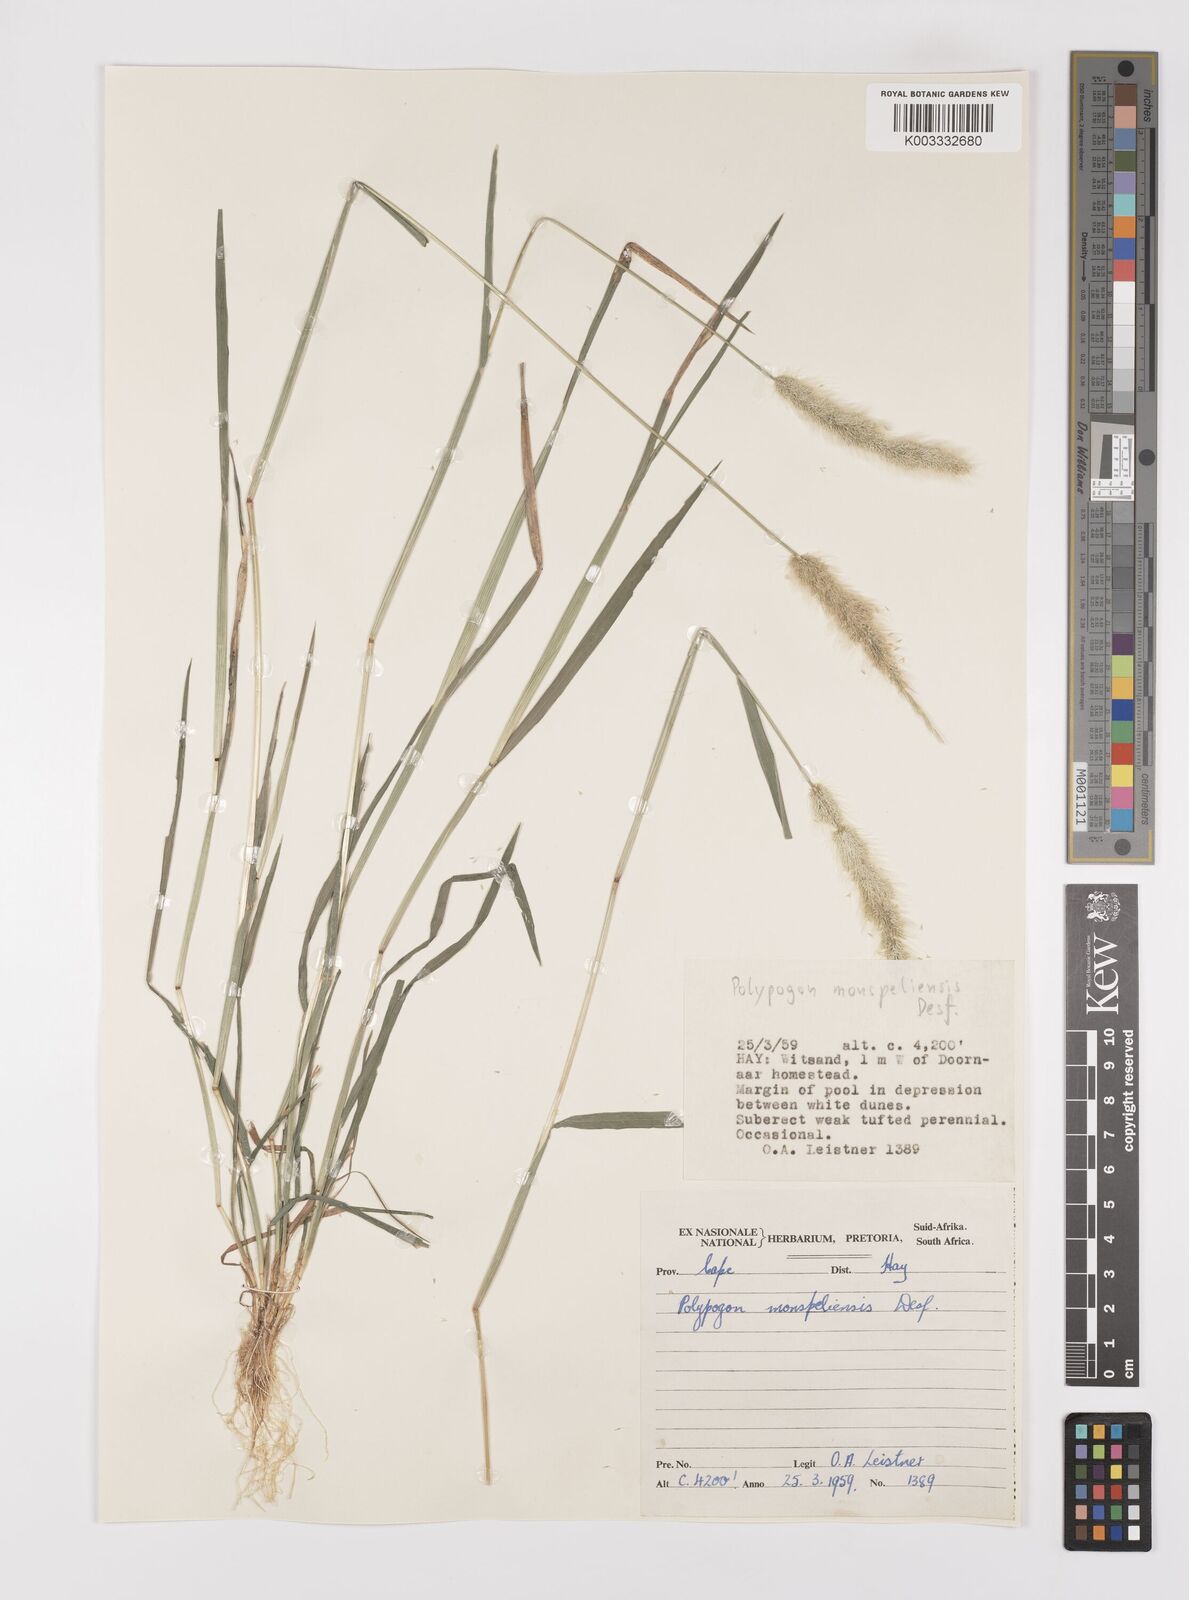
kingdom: Plantae
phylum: Tracheophyta
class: Liliopsida
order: Poales
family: Poaceae
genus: Polypogon
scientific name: Polypogon monspeliensis
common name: Annual rabbitsfoot grass
